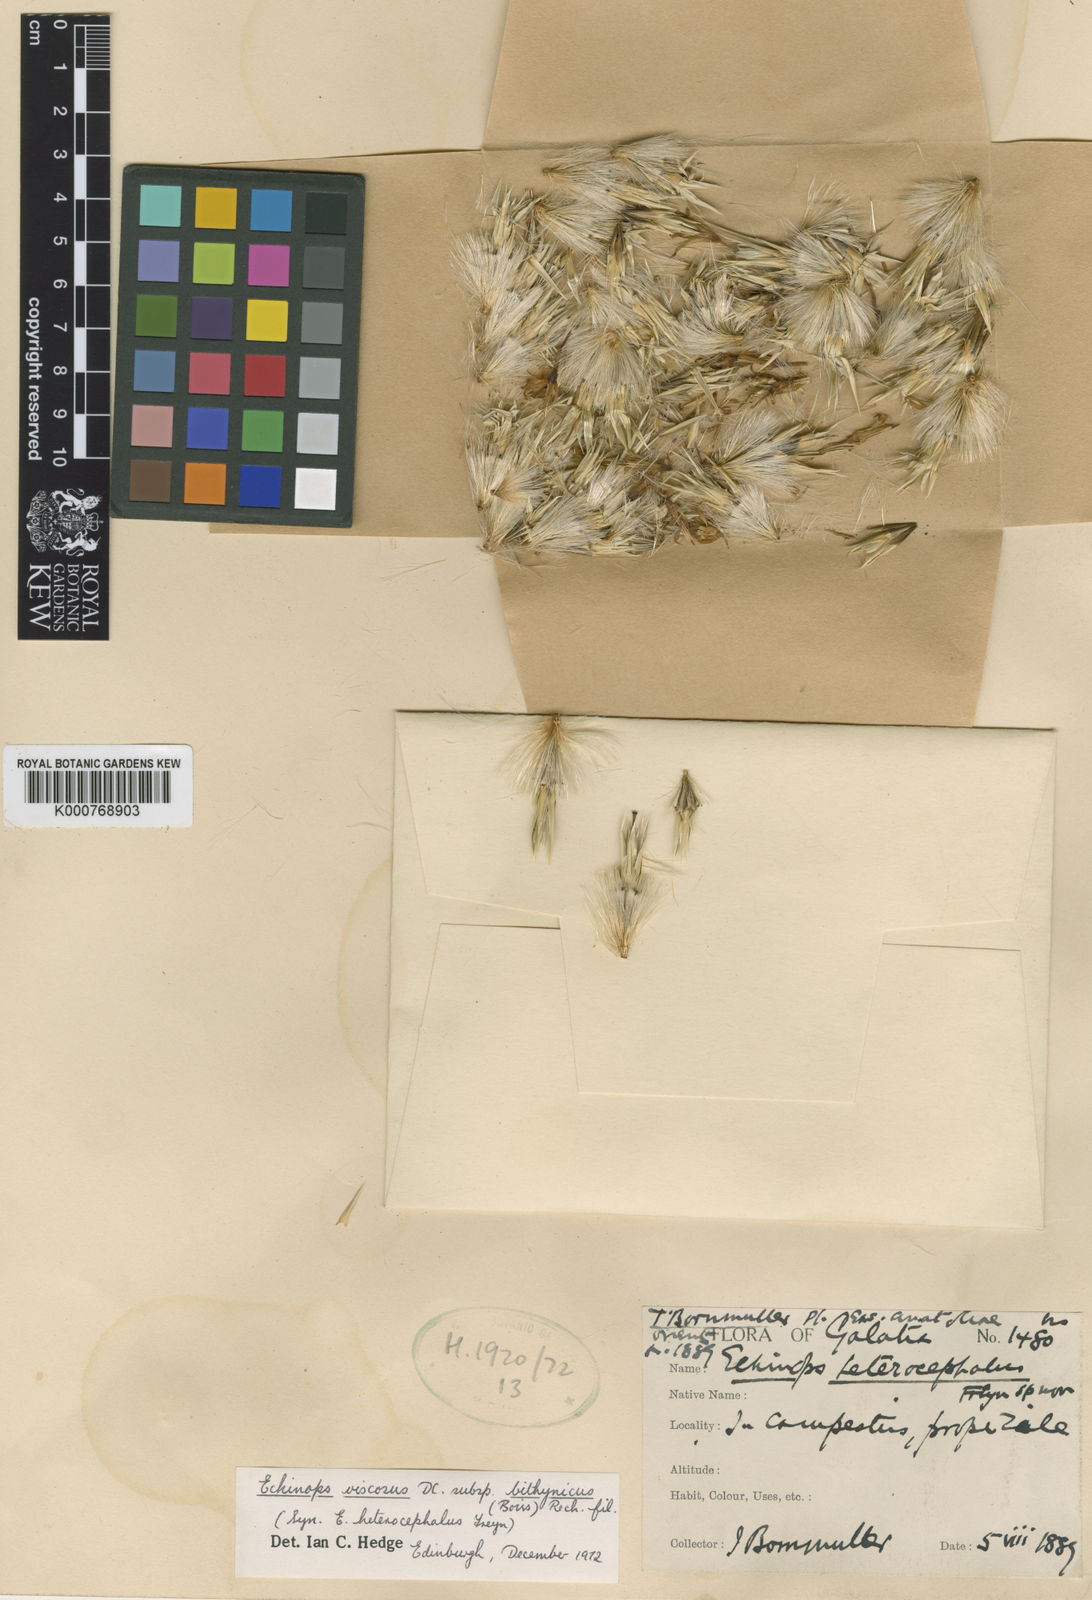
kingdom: Plantae
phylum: Tracheophyta
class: Magnoliopsida
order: Asterales
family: Asteraceae
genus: Echinops
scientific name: Echinops spinosissimus
